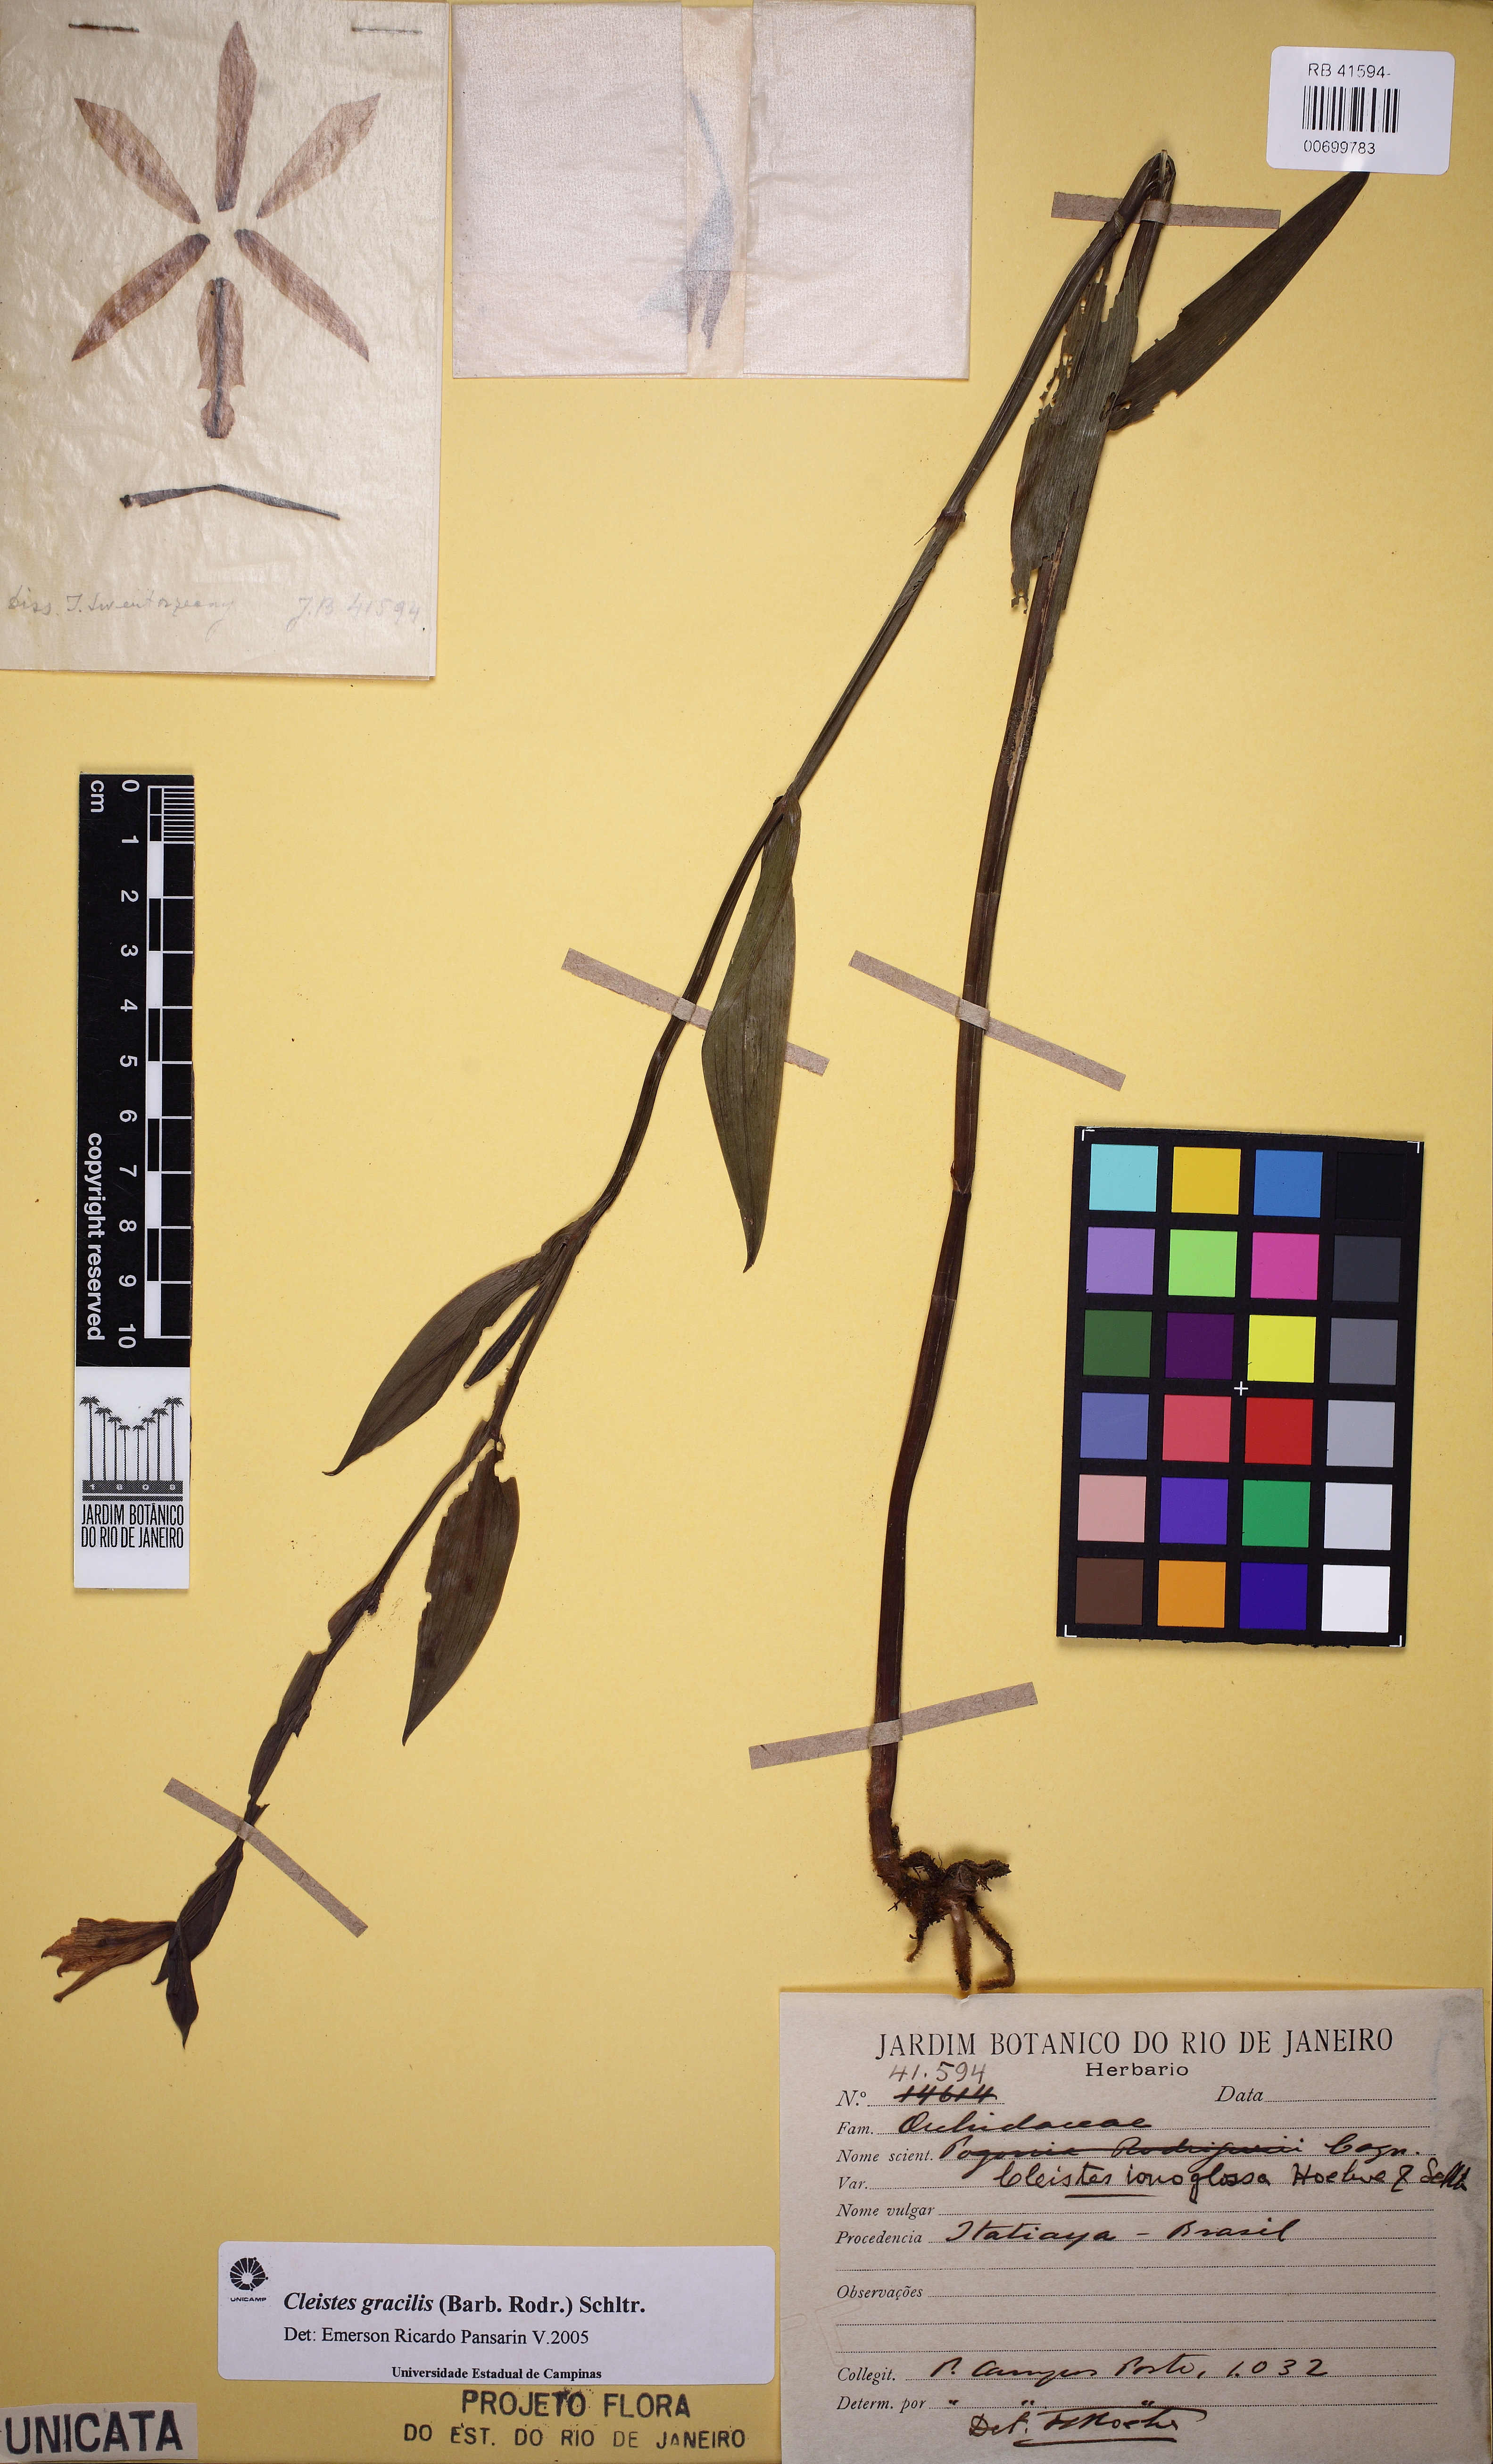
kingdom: Plantae
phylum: Tracheophyta
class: Liliopsida
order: Asparagales
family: Orchidaceae
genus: Cleistes
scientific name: Cleistes rodriguesii
